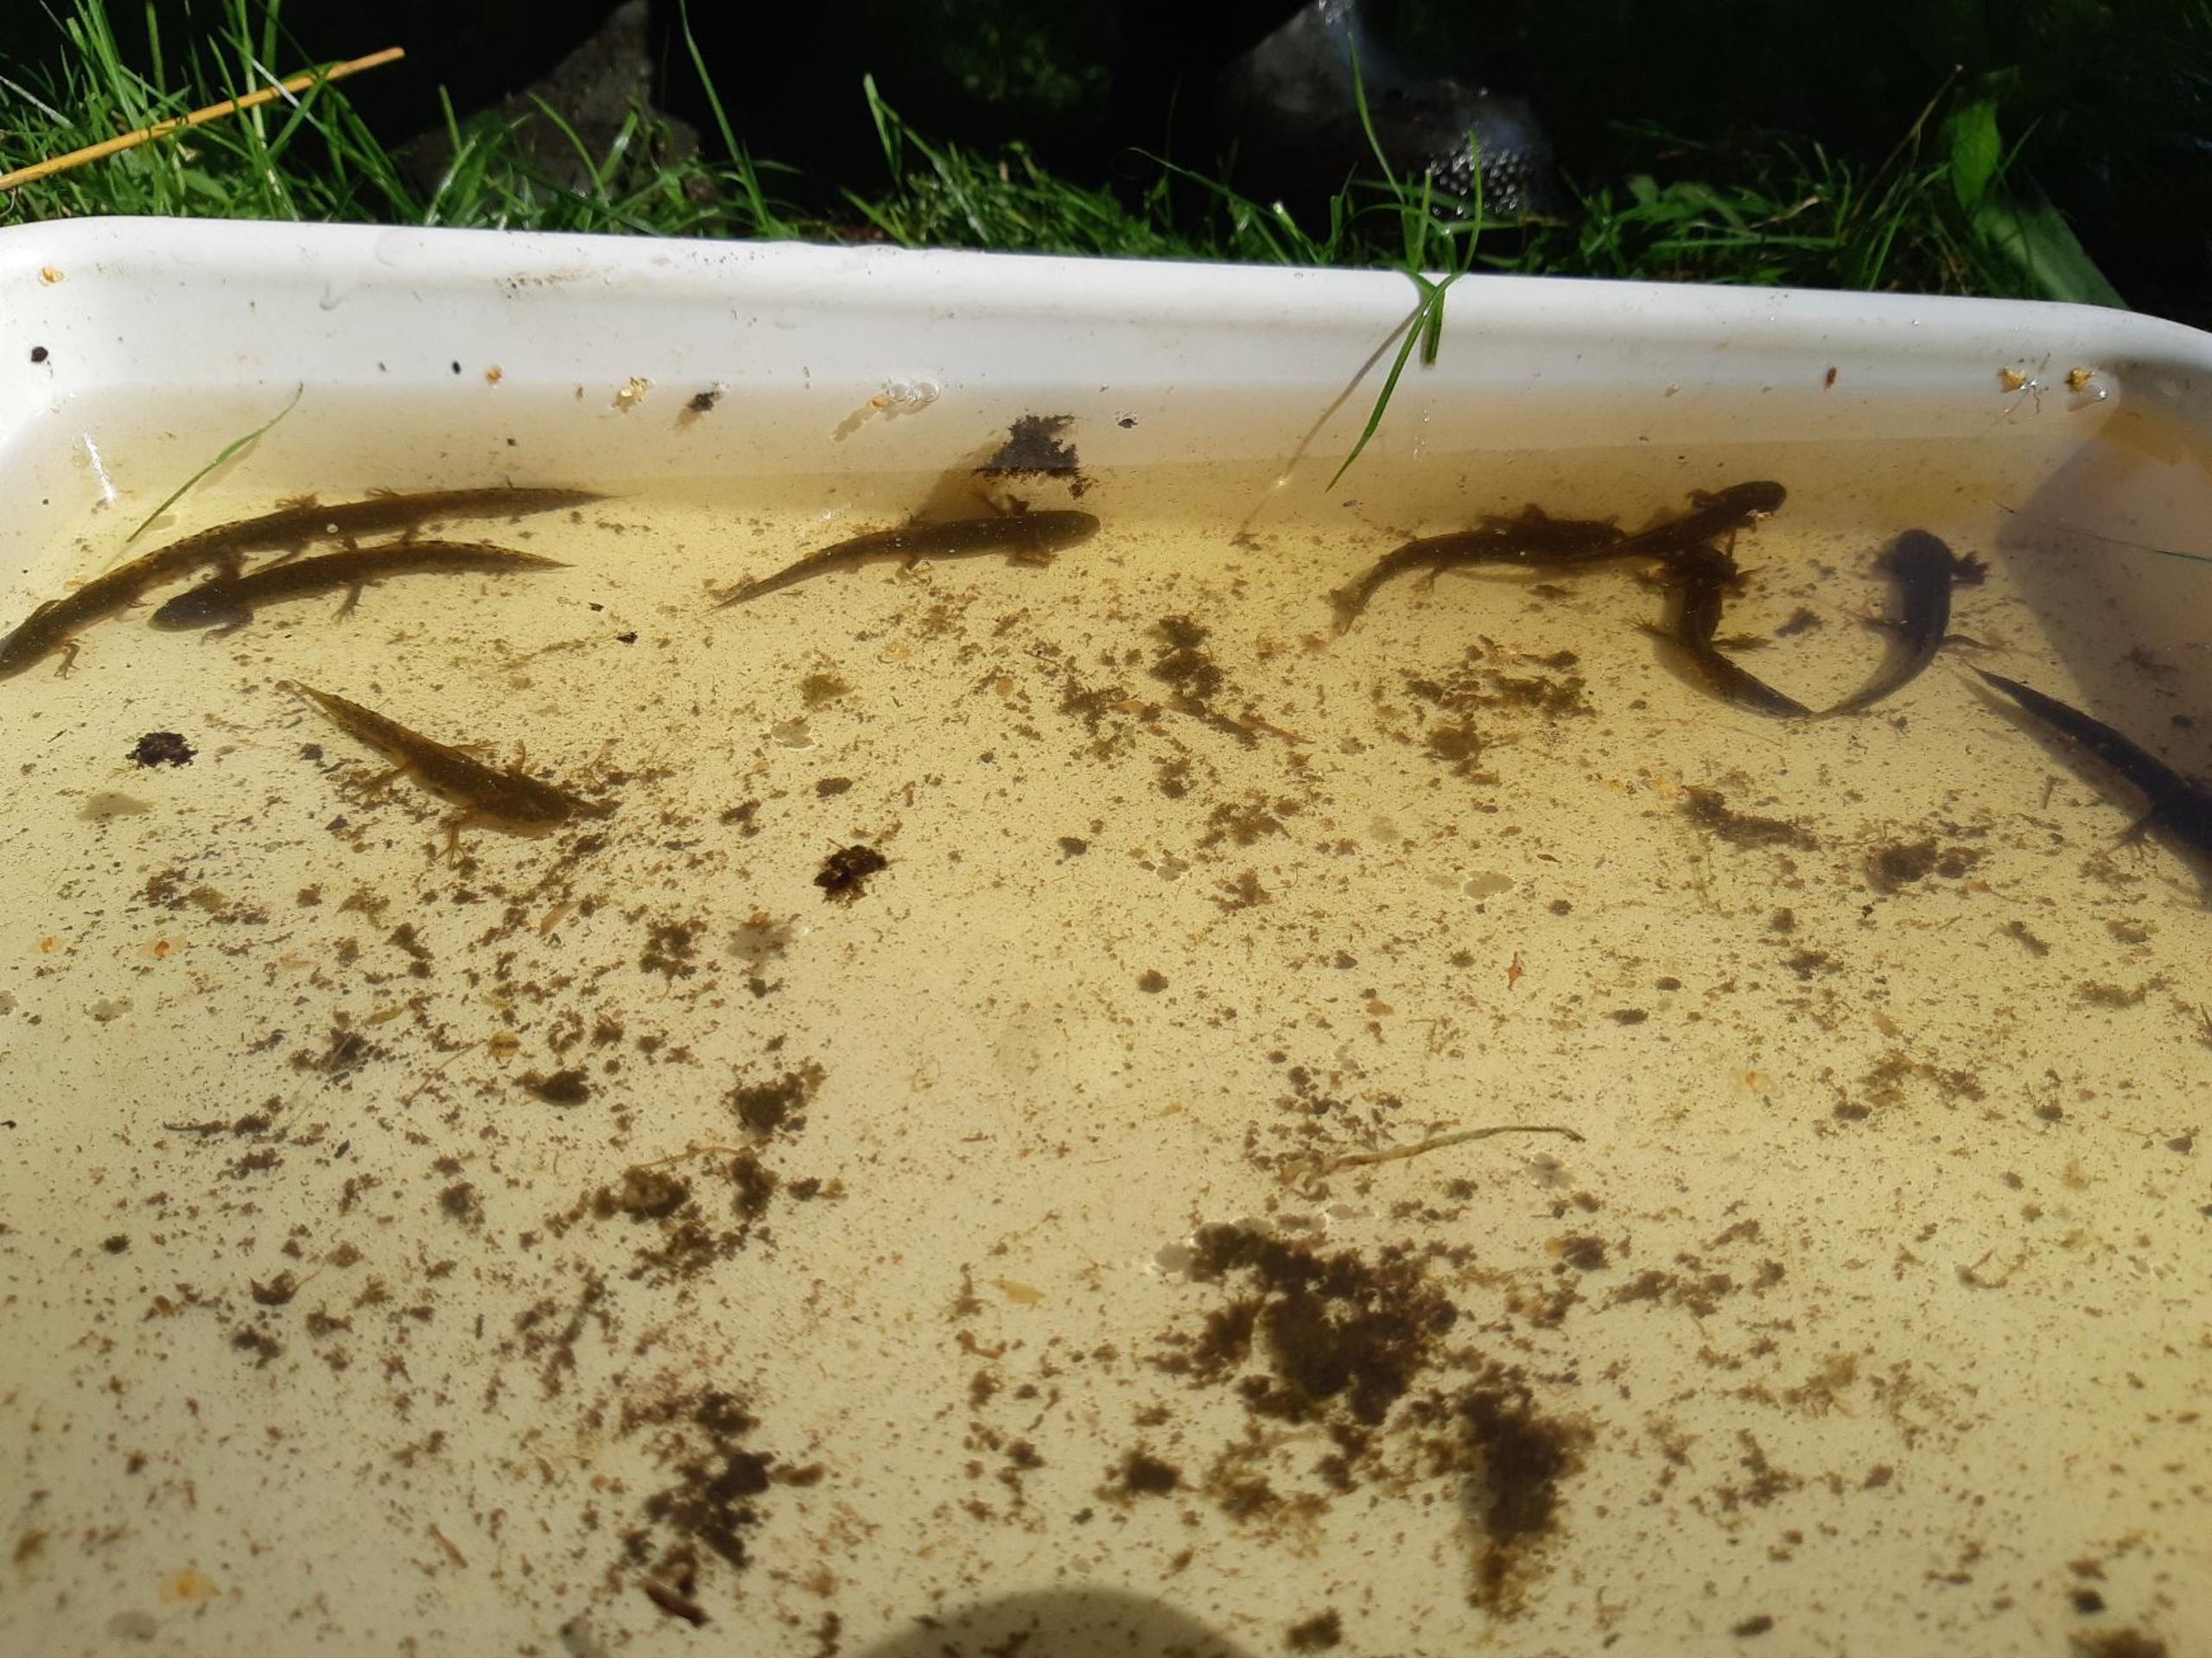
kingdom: Animalia
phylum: Chordata
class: Amphibia
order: Caudata
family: Salamandridae
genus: Triturus
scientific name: Triturus cristatus
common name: Stor vandsalamander
